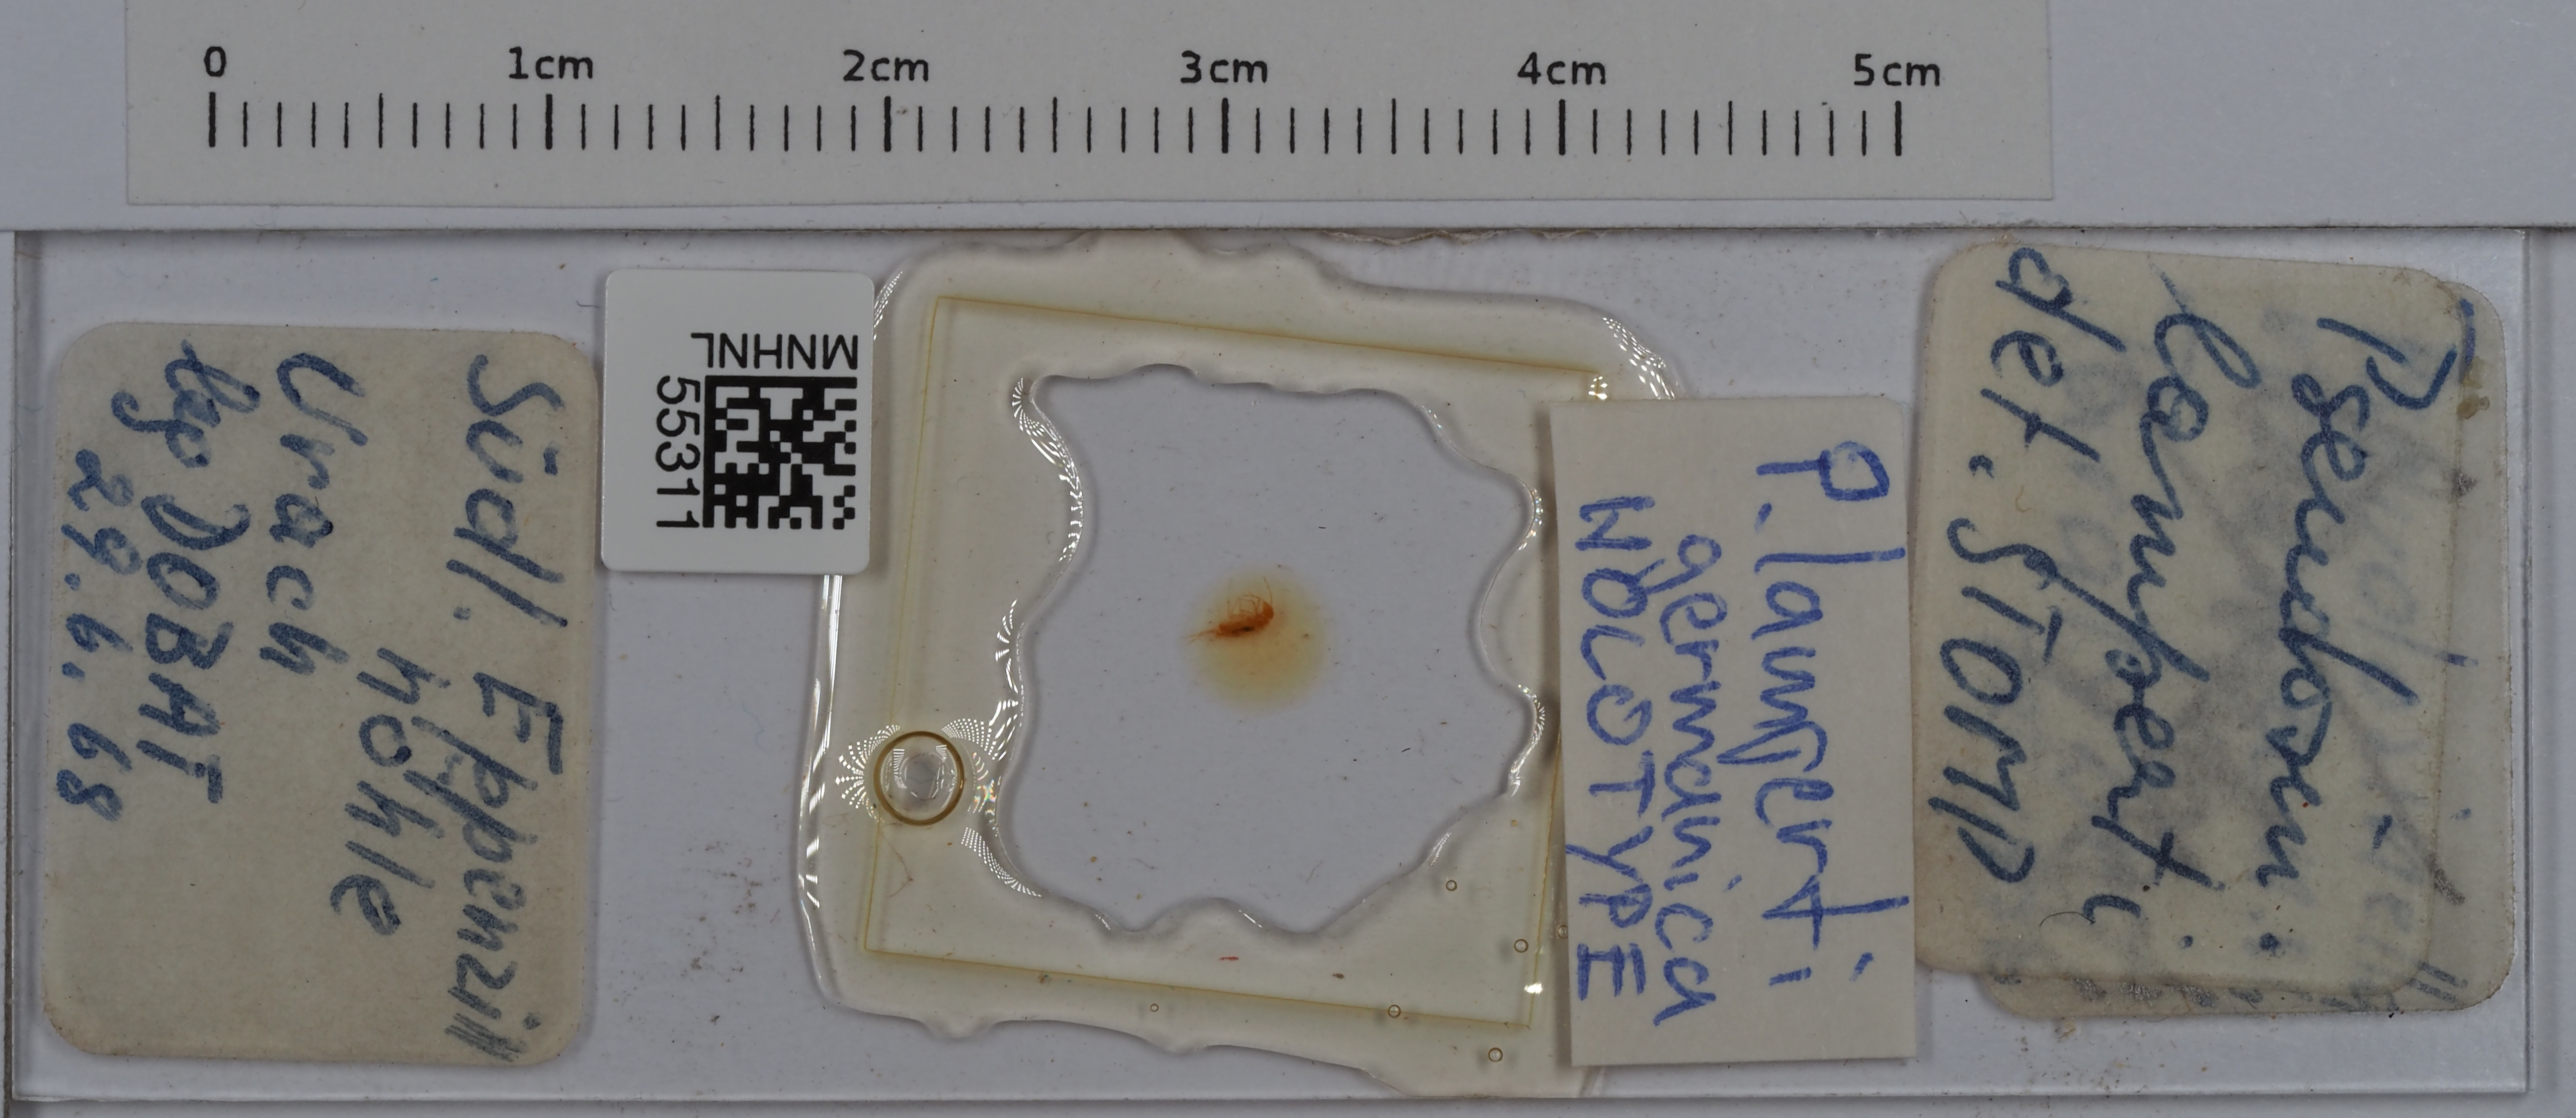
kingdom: Animalia
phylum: Arthropoda
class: Collembola
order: Entomobryomorpha
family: Entomobryidae
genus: Pseudosinella
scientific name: Pseudosinella lamperti
